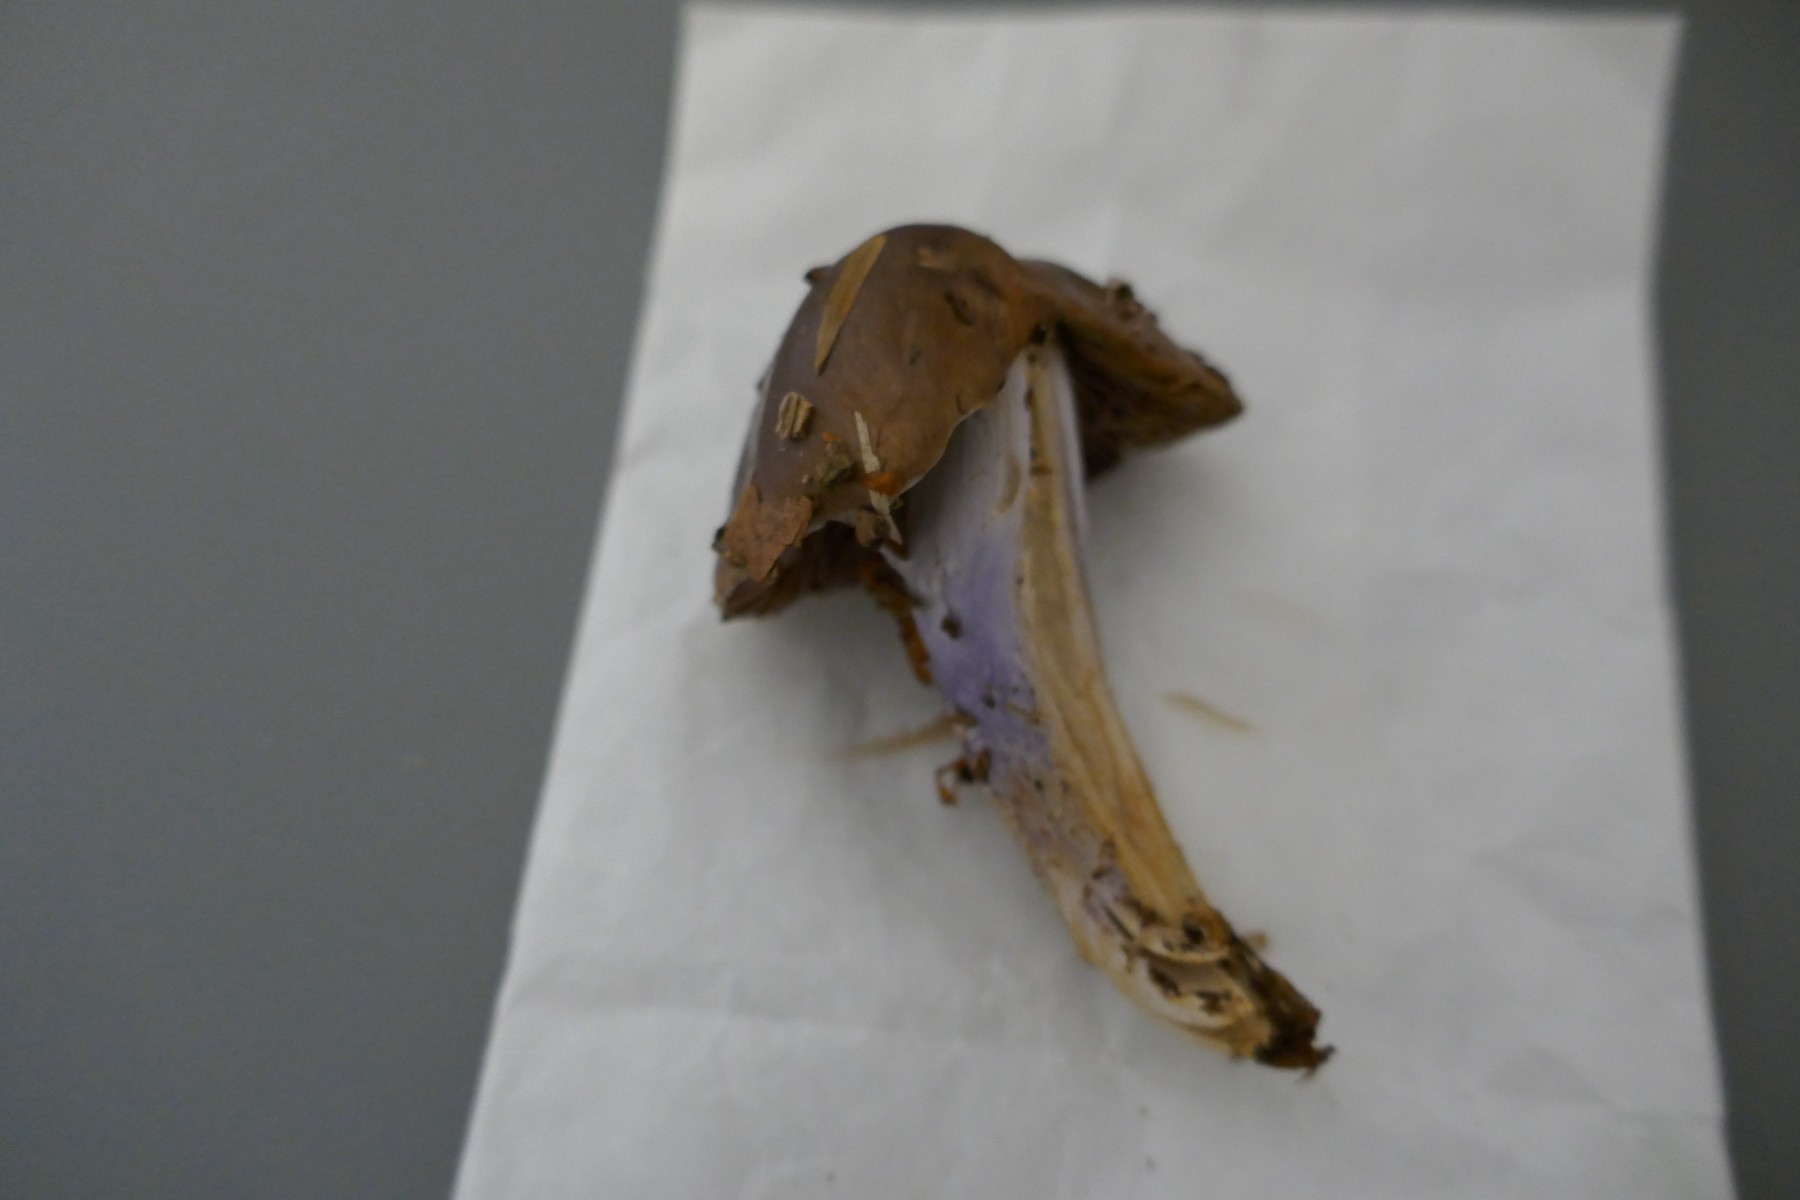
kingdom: Fungi
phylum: Basidiomycota
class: Agaricomycetes
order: Agaricales
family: Cortinariaceae
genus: Cortinarius
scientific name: Cortinarius elatior
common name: høj slørhat
